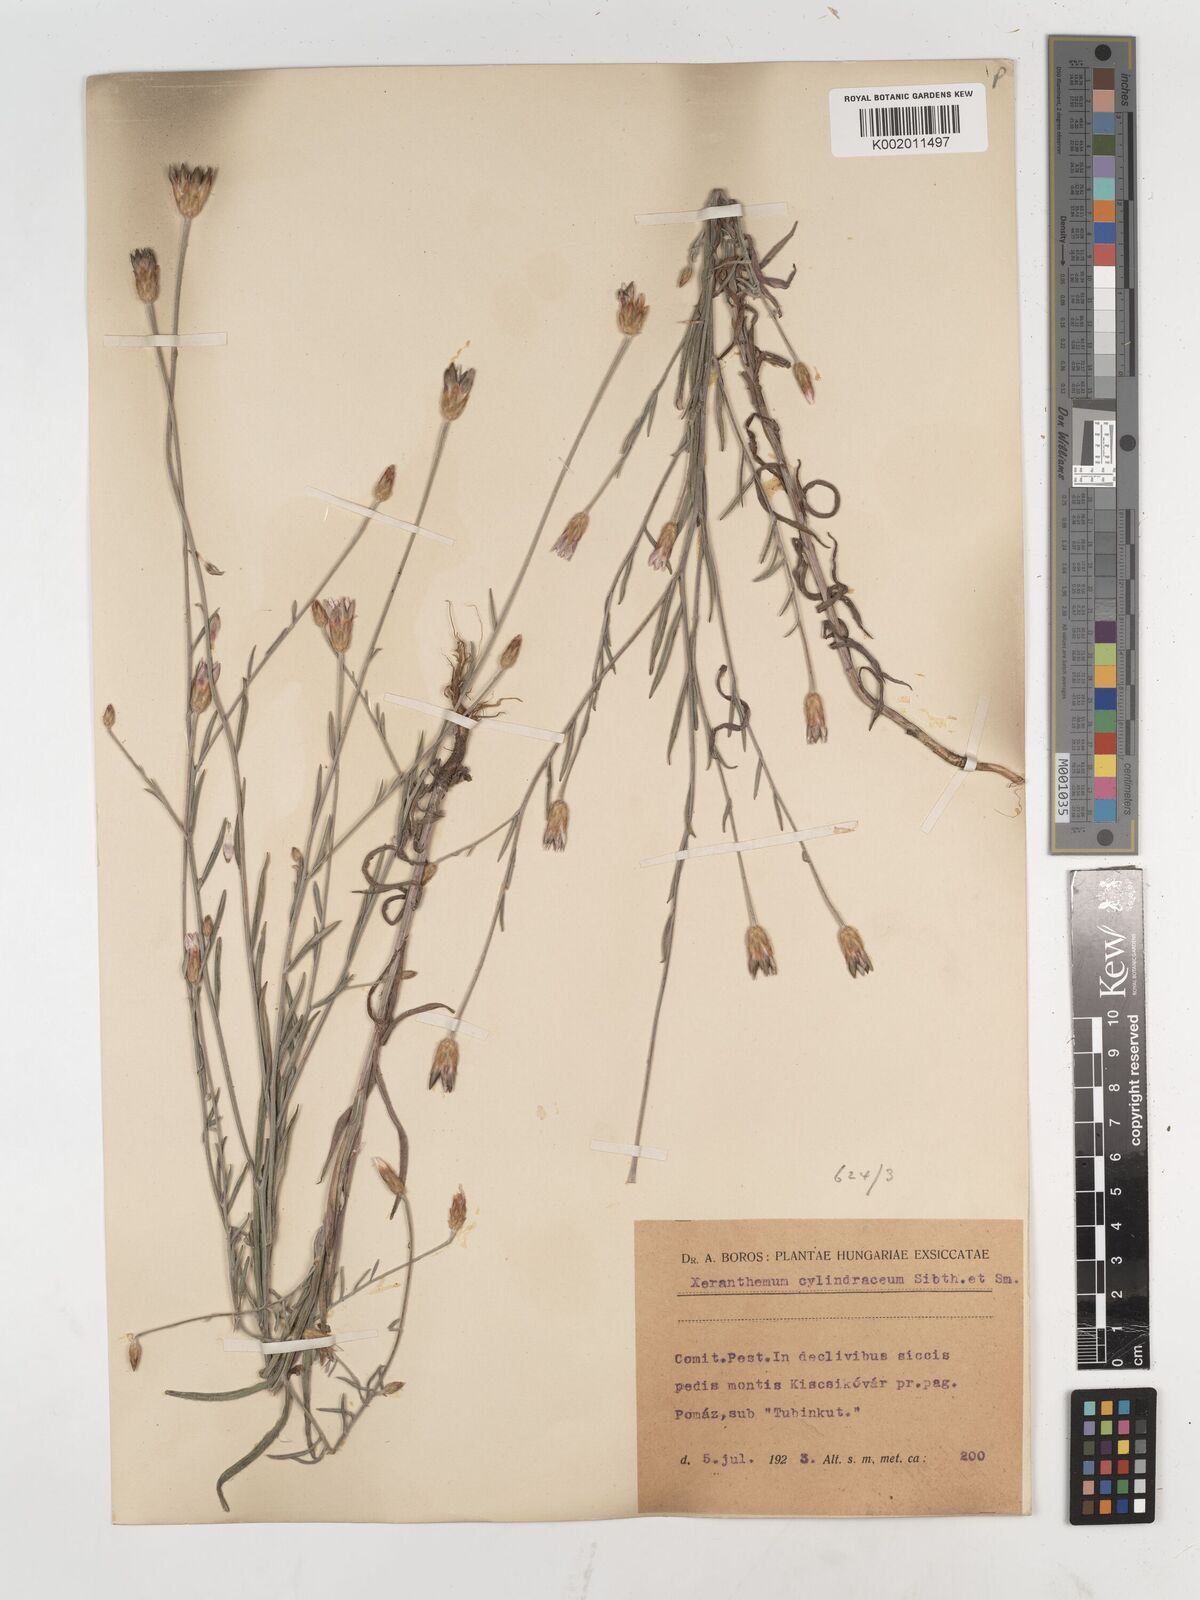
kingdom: Plantae
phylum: Tracheophyta
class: Magnoliopsida
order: Asterales
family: Asteraceae
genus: Xeranthemum
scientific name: Xeranthemum cylindraceum
